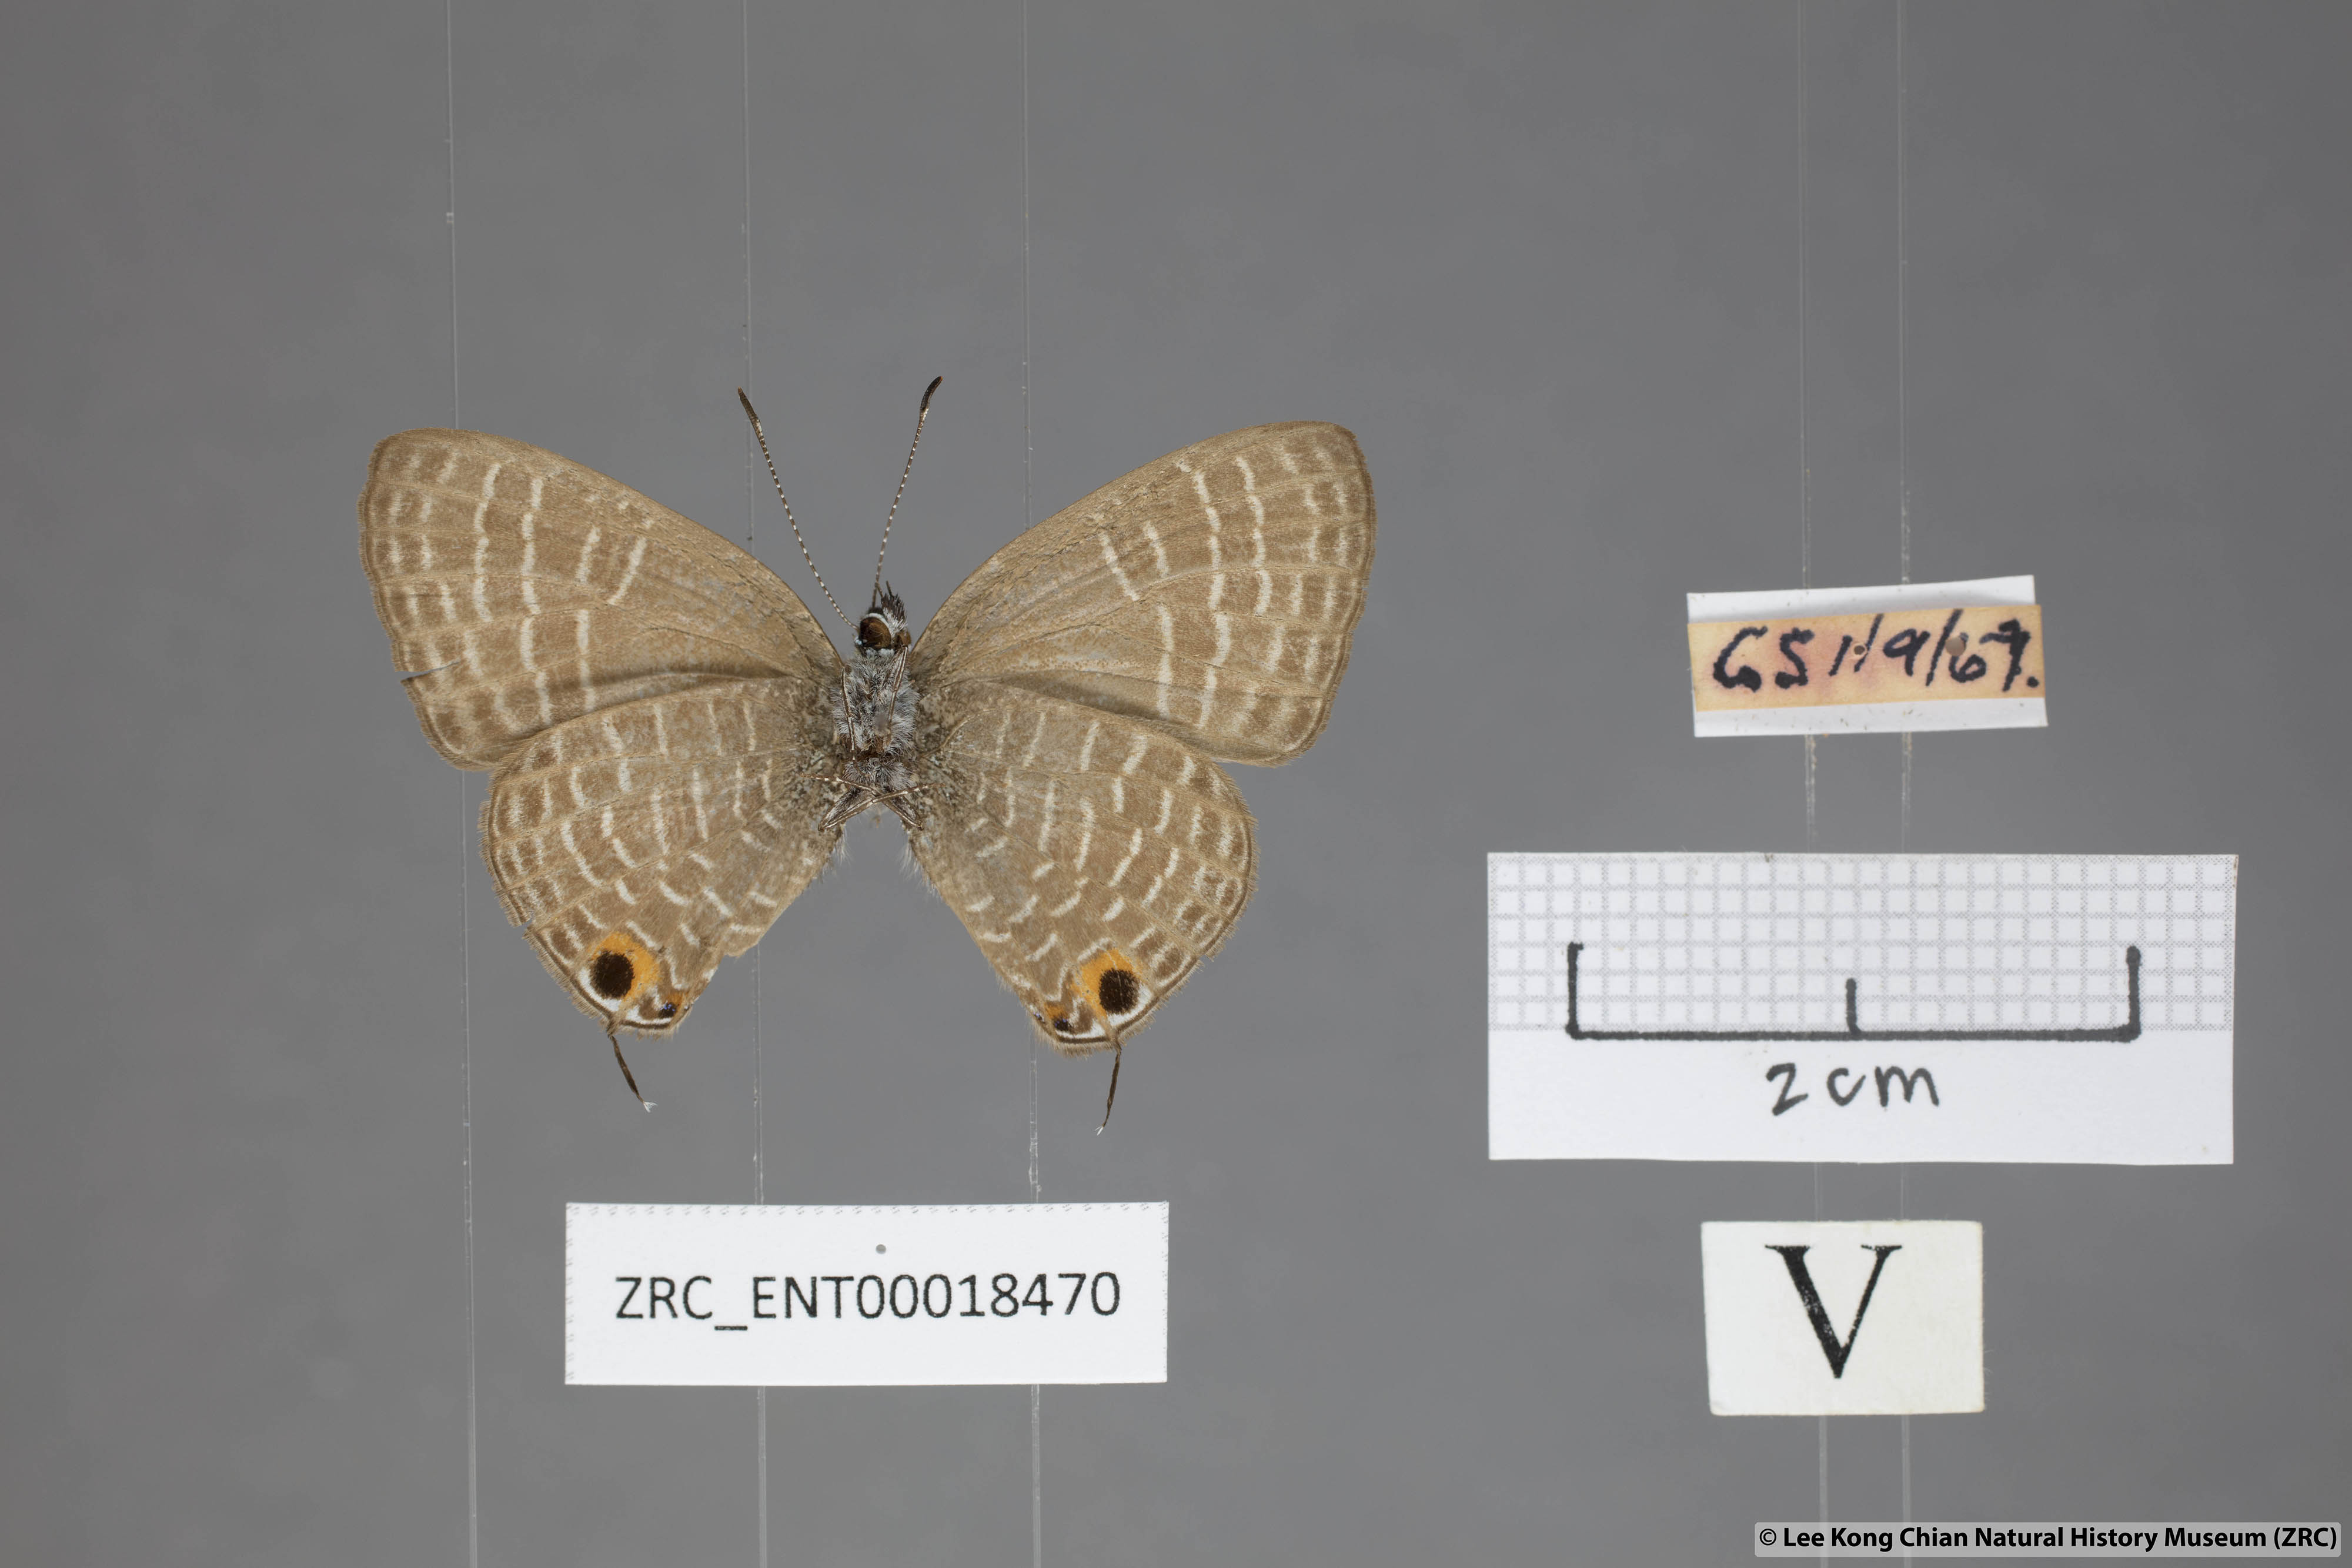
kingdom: Animalia
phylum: Arthropoda
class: Insecta
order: Lepidoptera
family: Lycaenidae
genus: Nacaduba
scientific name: Nacaduba solta
